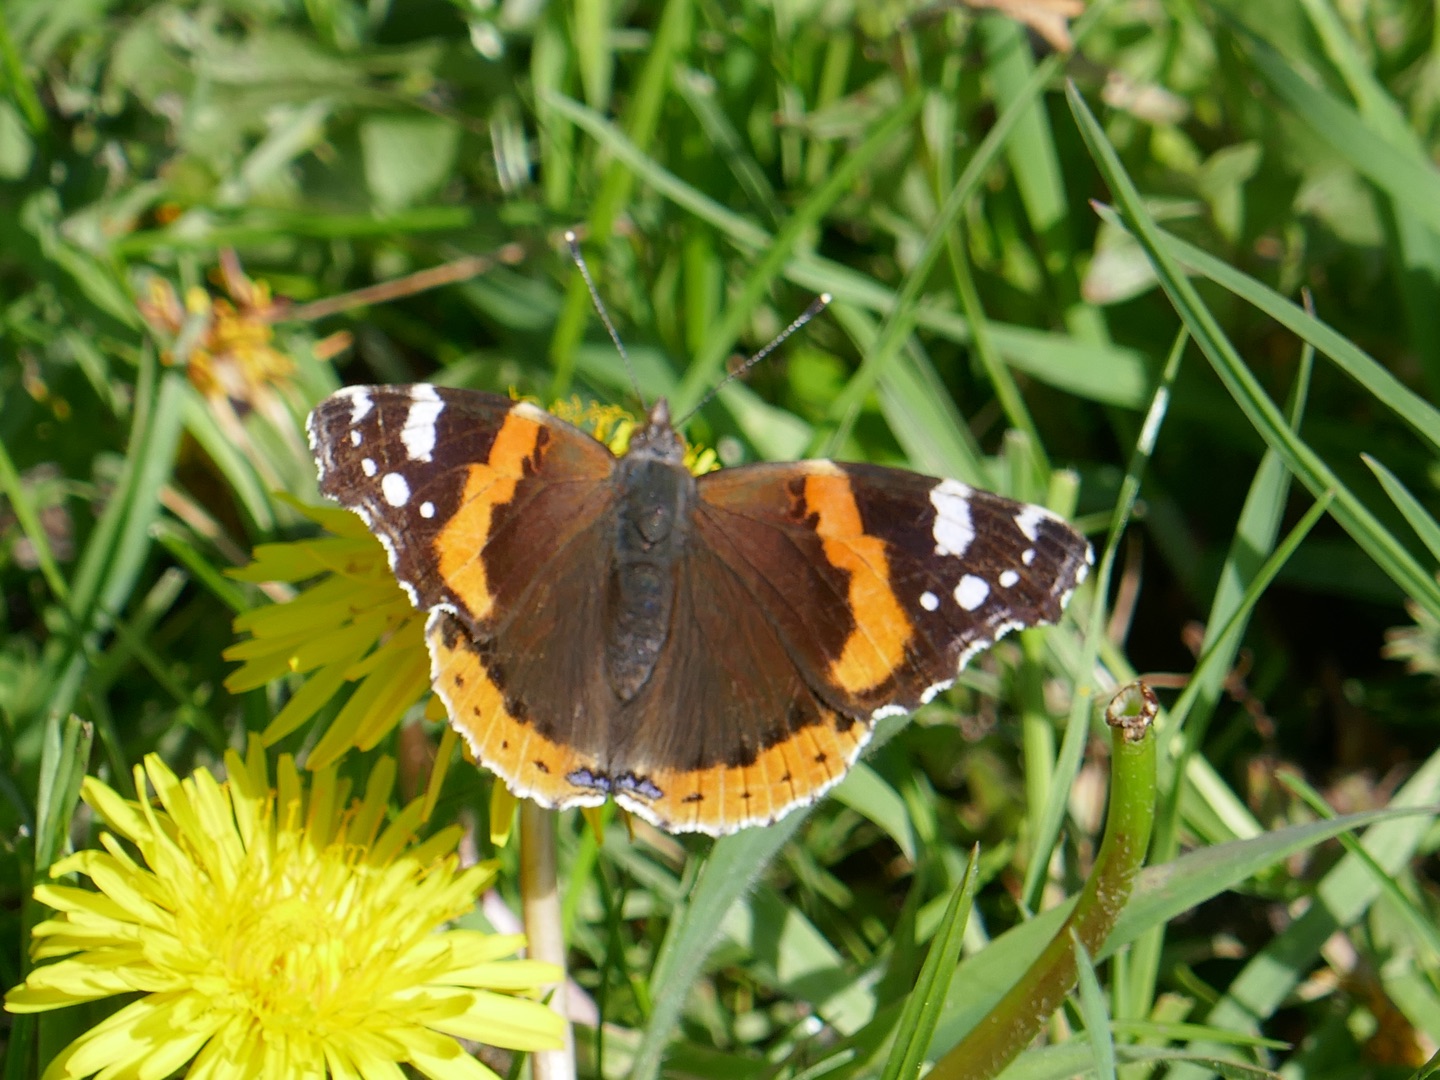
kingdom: Animalia
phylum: Arthropoda
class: Insecta
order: Lepidoptera
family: Nymphalidae
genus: Vanessa
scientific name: Vanessa atalanta
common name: Admiral
